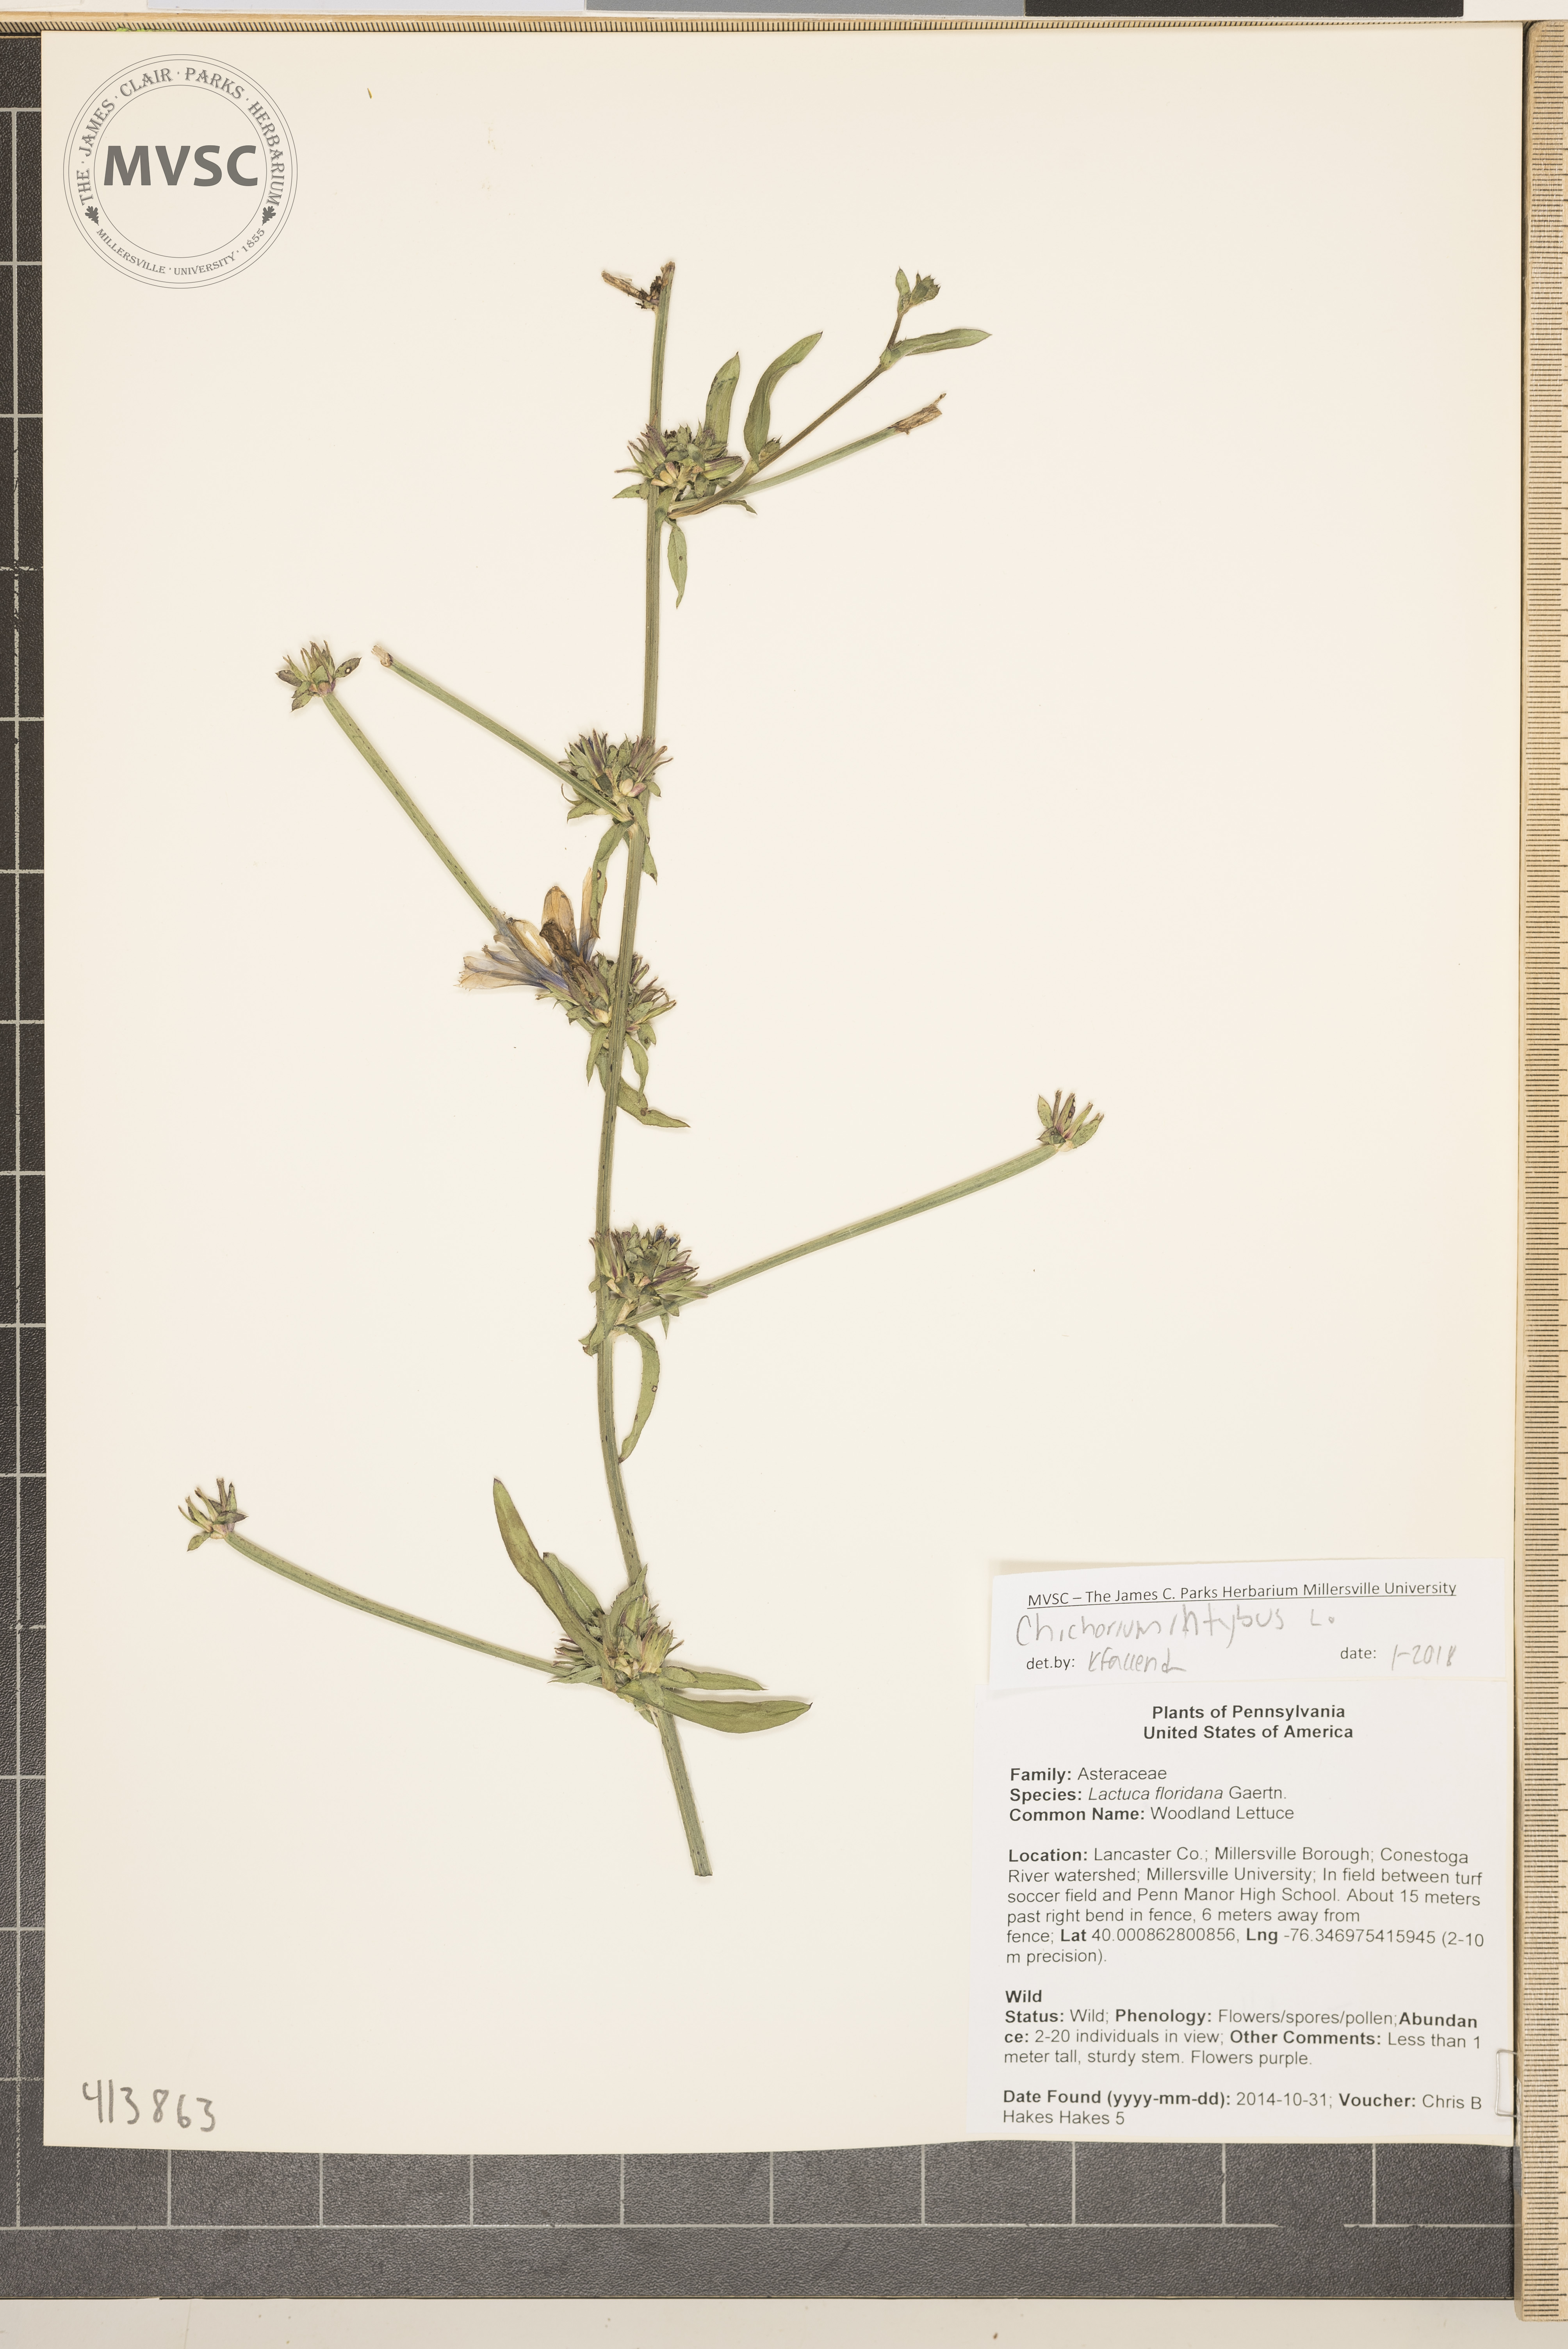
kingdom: Plantae
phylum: Tracheophyta
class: Magnoliopsida
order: Asterales
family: Asteraceae
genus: Cichorium
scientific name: Cichorium intybus
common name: Chickory
